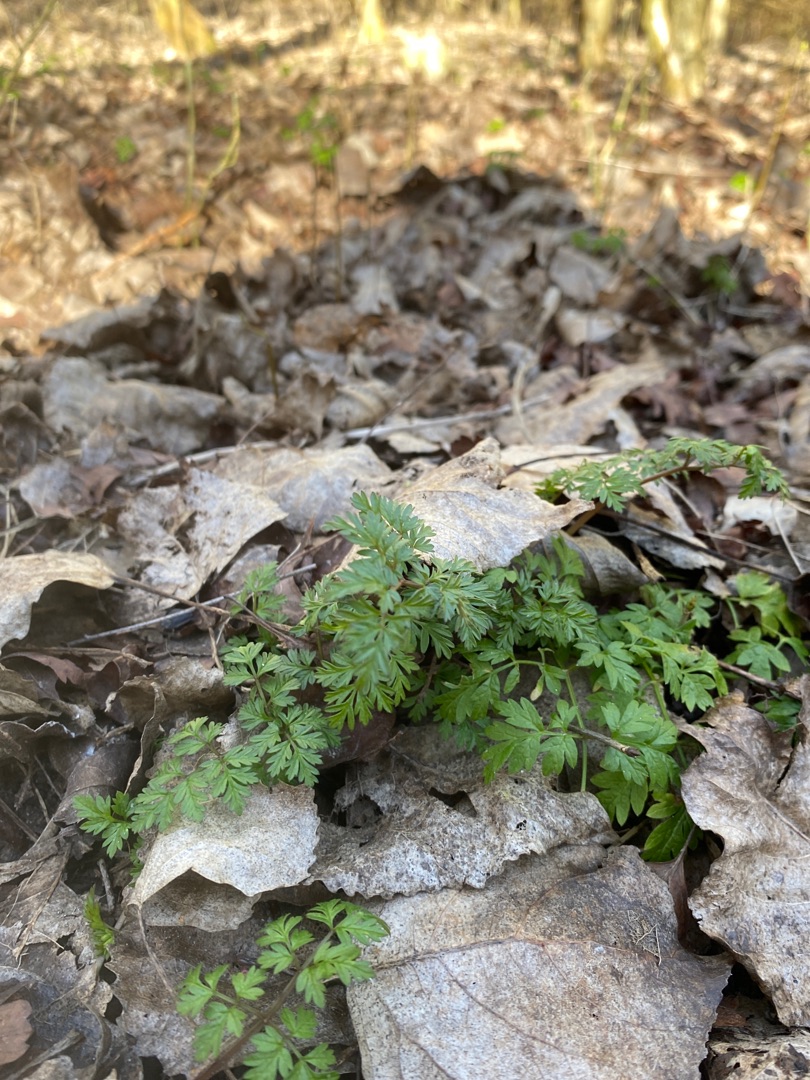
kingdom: Plantae
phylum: Tracheophyta
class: Magnoliopsida
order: Apiales
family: Apiaceae
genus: Anthriscus
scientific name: Anthriscus sylvestris
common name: Vild kørvel
